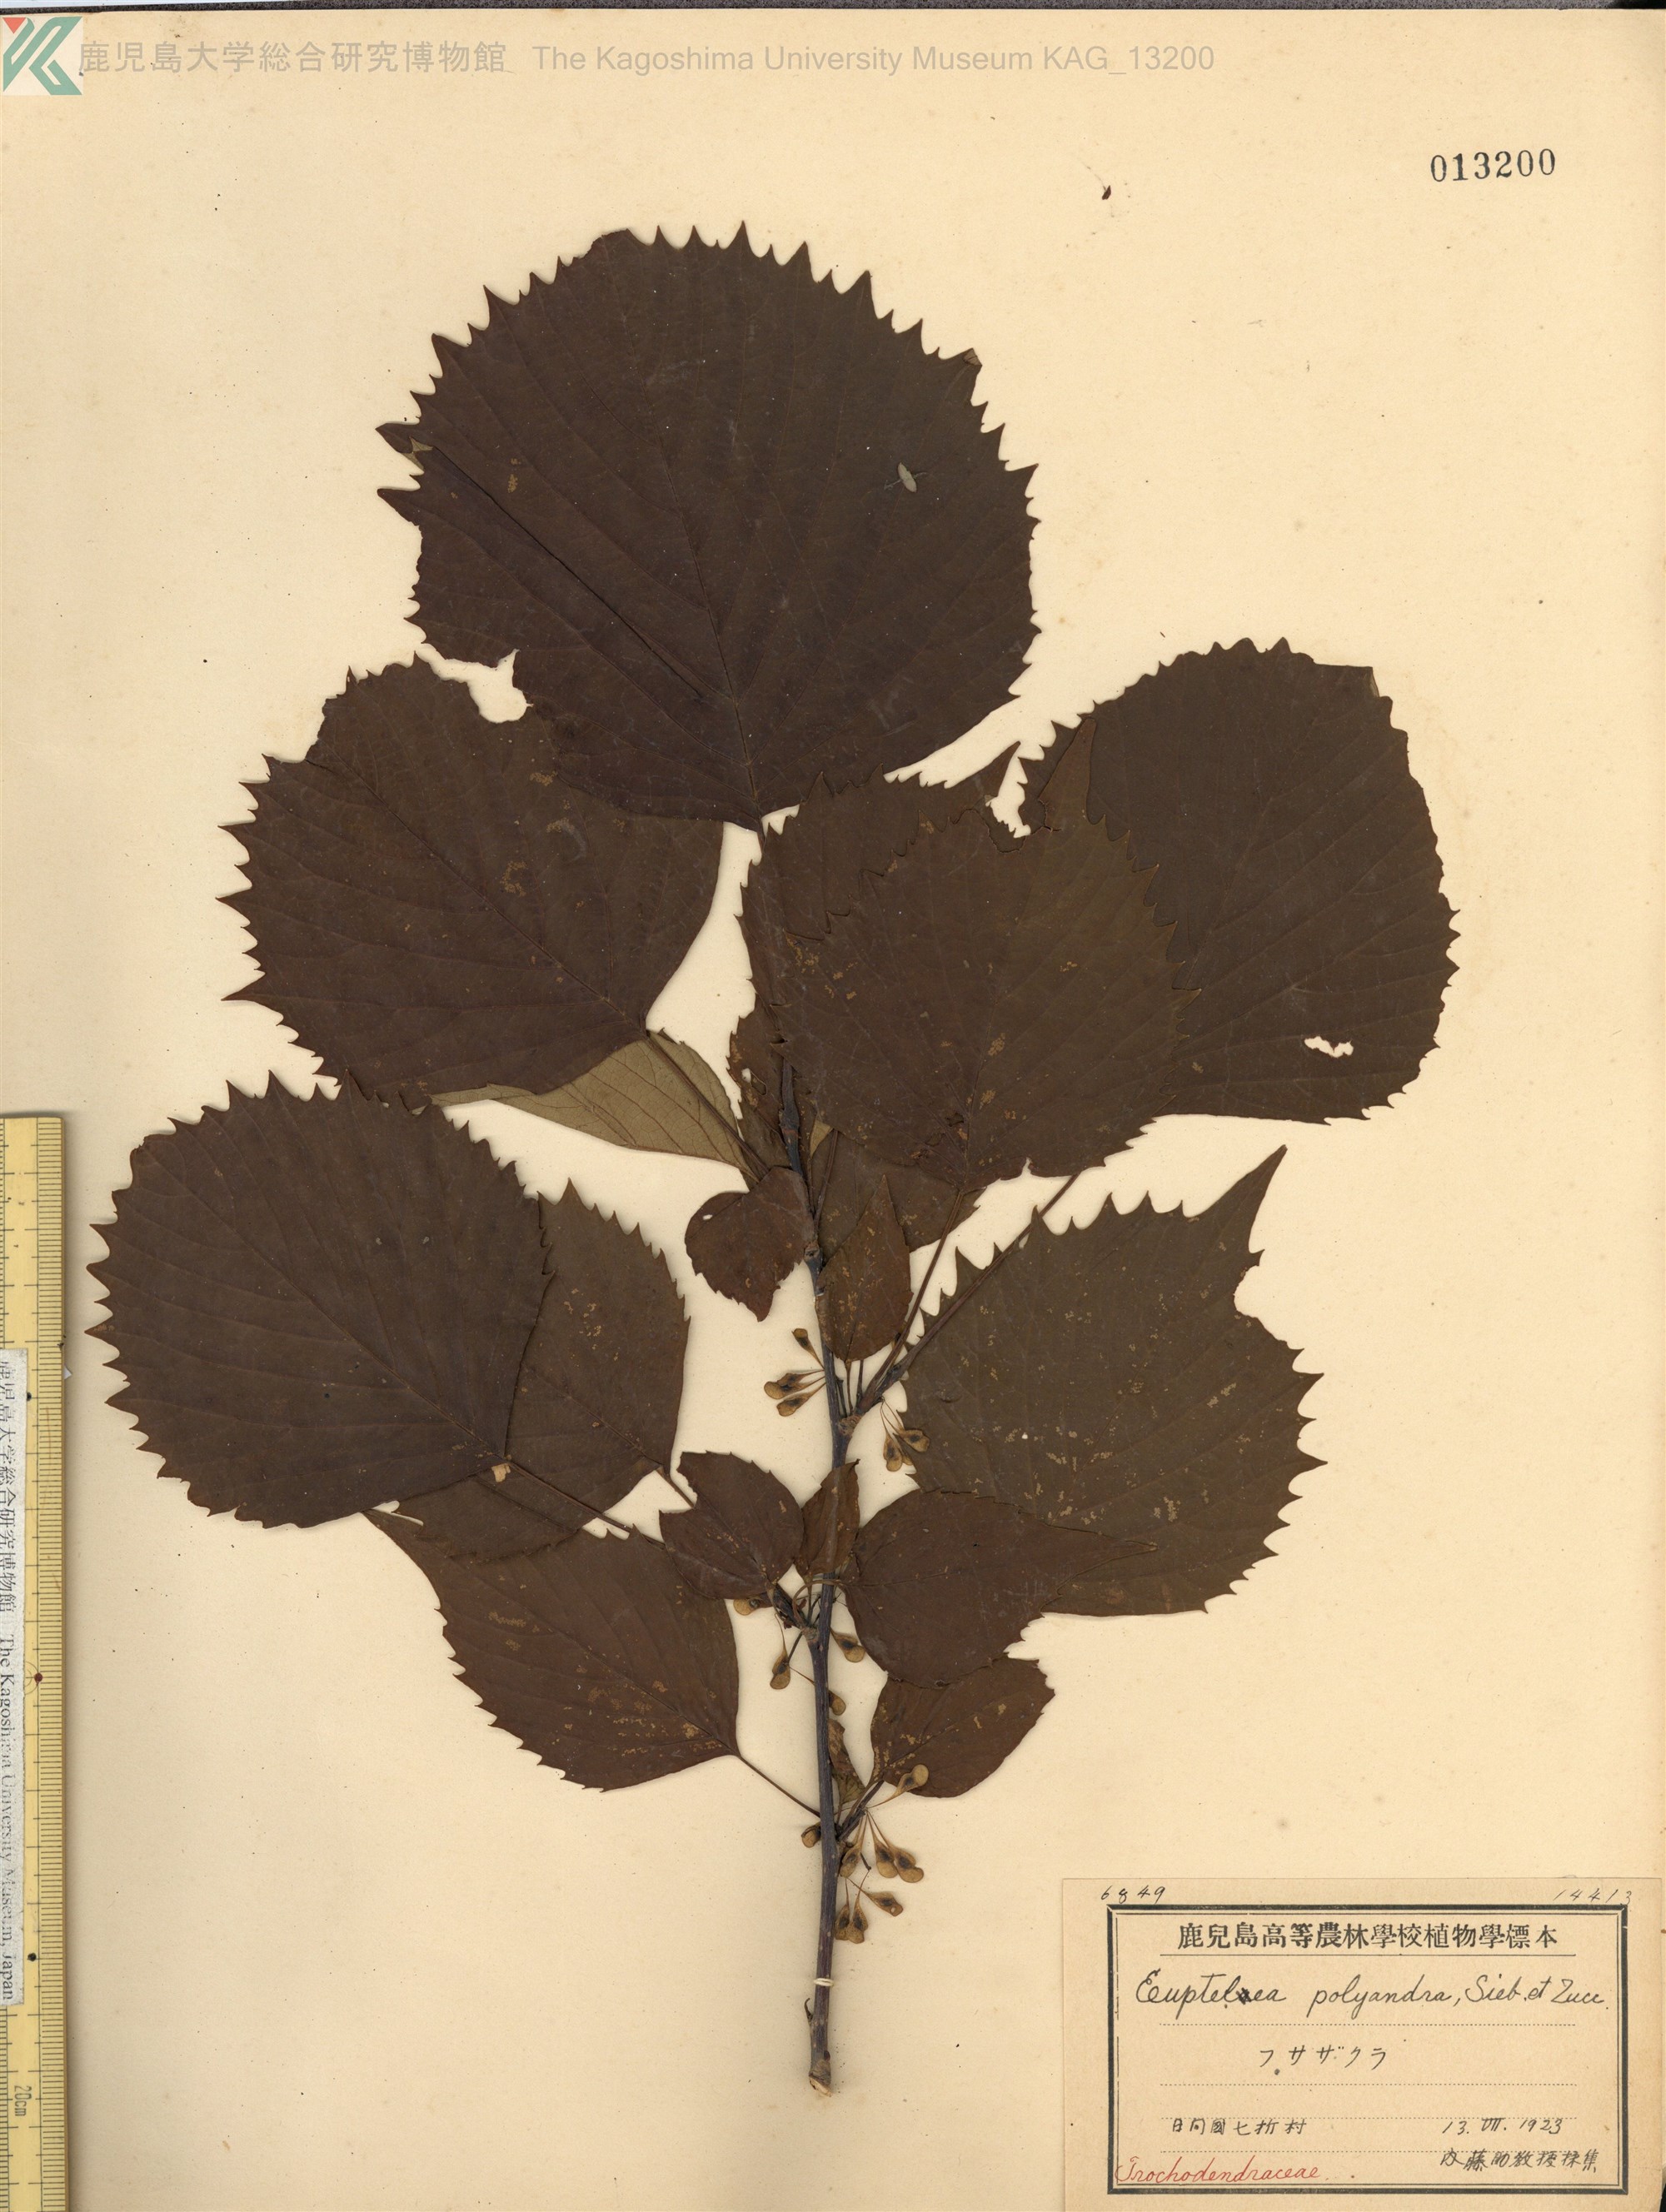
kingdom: Plantae
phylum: Tracheophyta
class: Magnoliopsida
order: Ranunculales
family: Eupteleaceae
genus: Euptelea
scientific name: Euptelea polyandra
